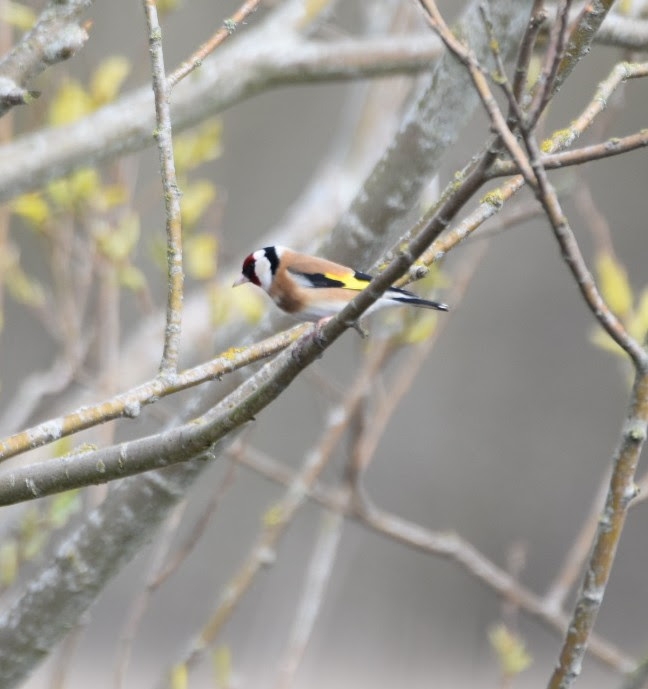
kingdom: Animalia
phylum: Chordata
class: Aves
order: Passeriformes
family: Fringillidae
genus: Carduelis
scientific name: Carduelis carduelis
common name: Stillits
